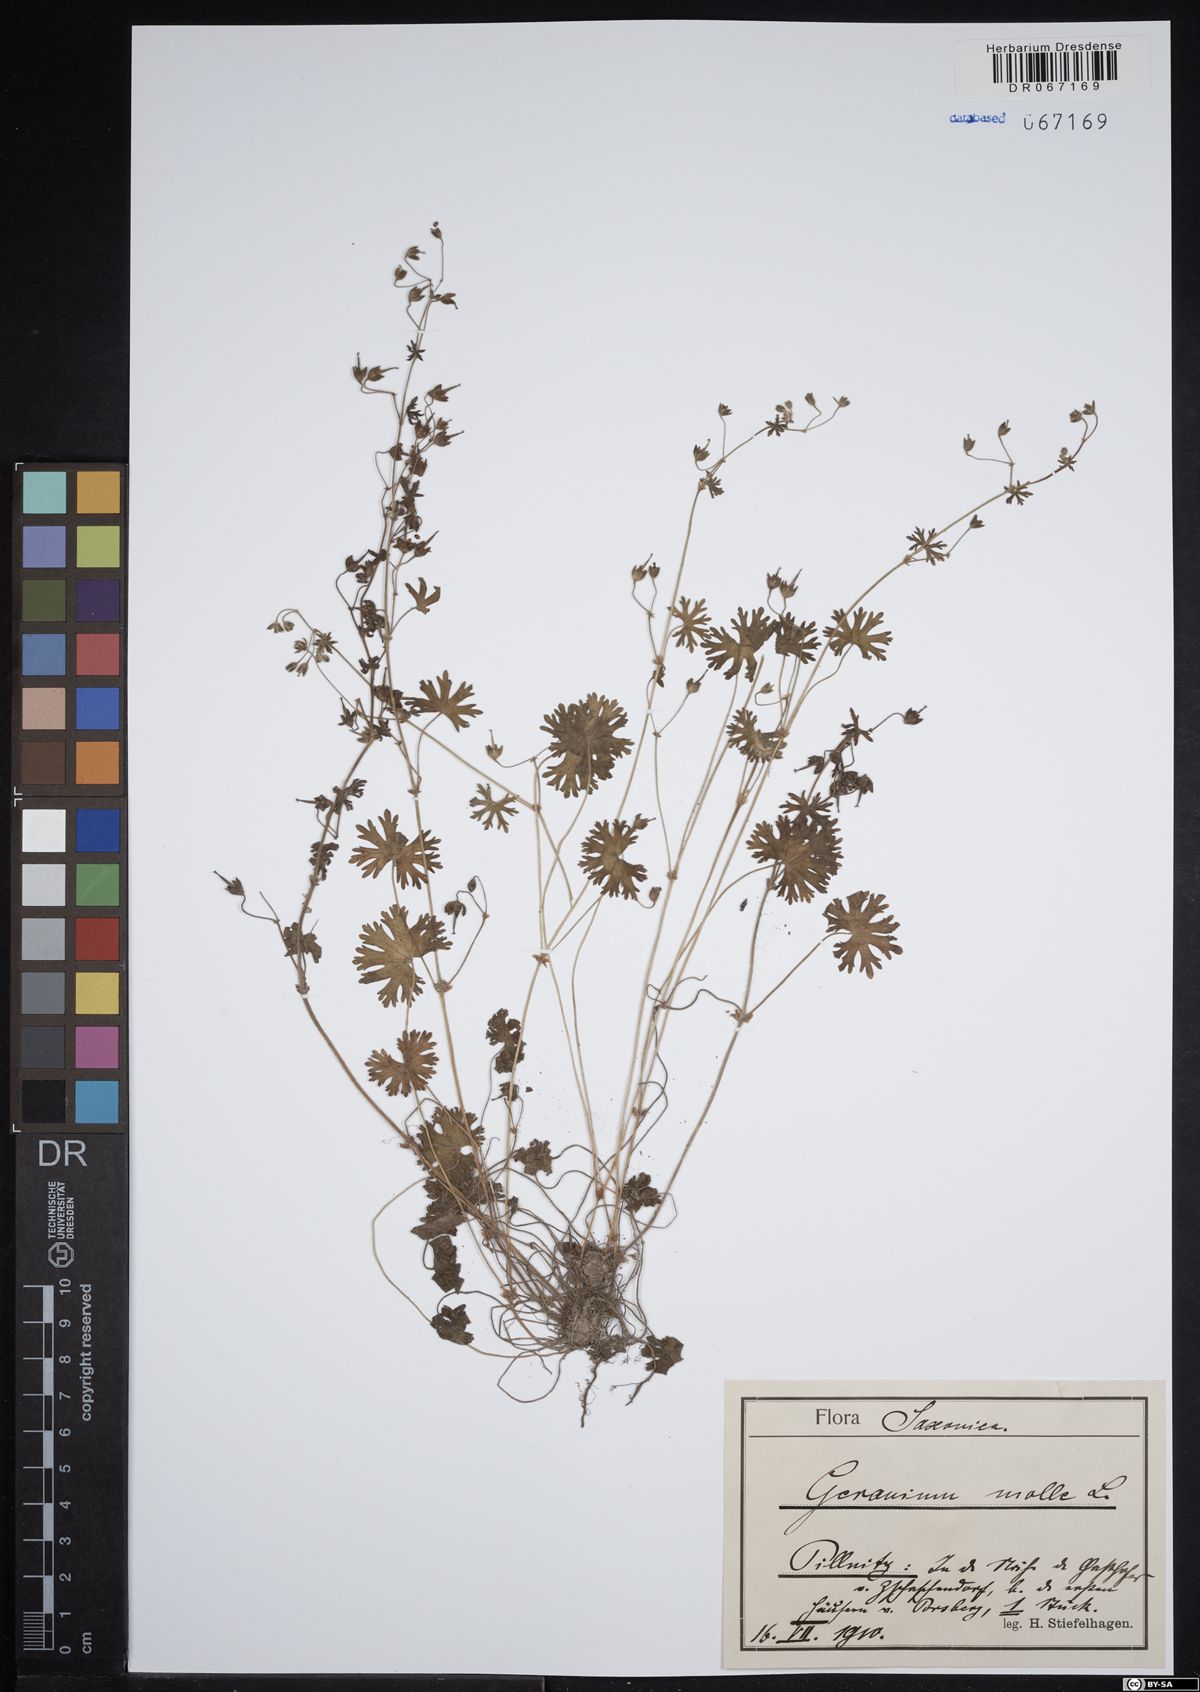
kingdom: Plantae
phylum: Tracheophyta
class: Magnoliopsida
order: Geraniales
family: Geraniaceae
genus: Geranium
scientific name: Geranium molle
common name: Dove's-foot crane's-bill
